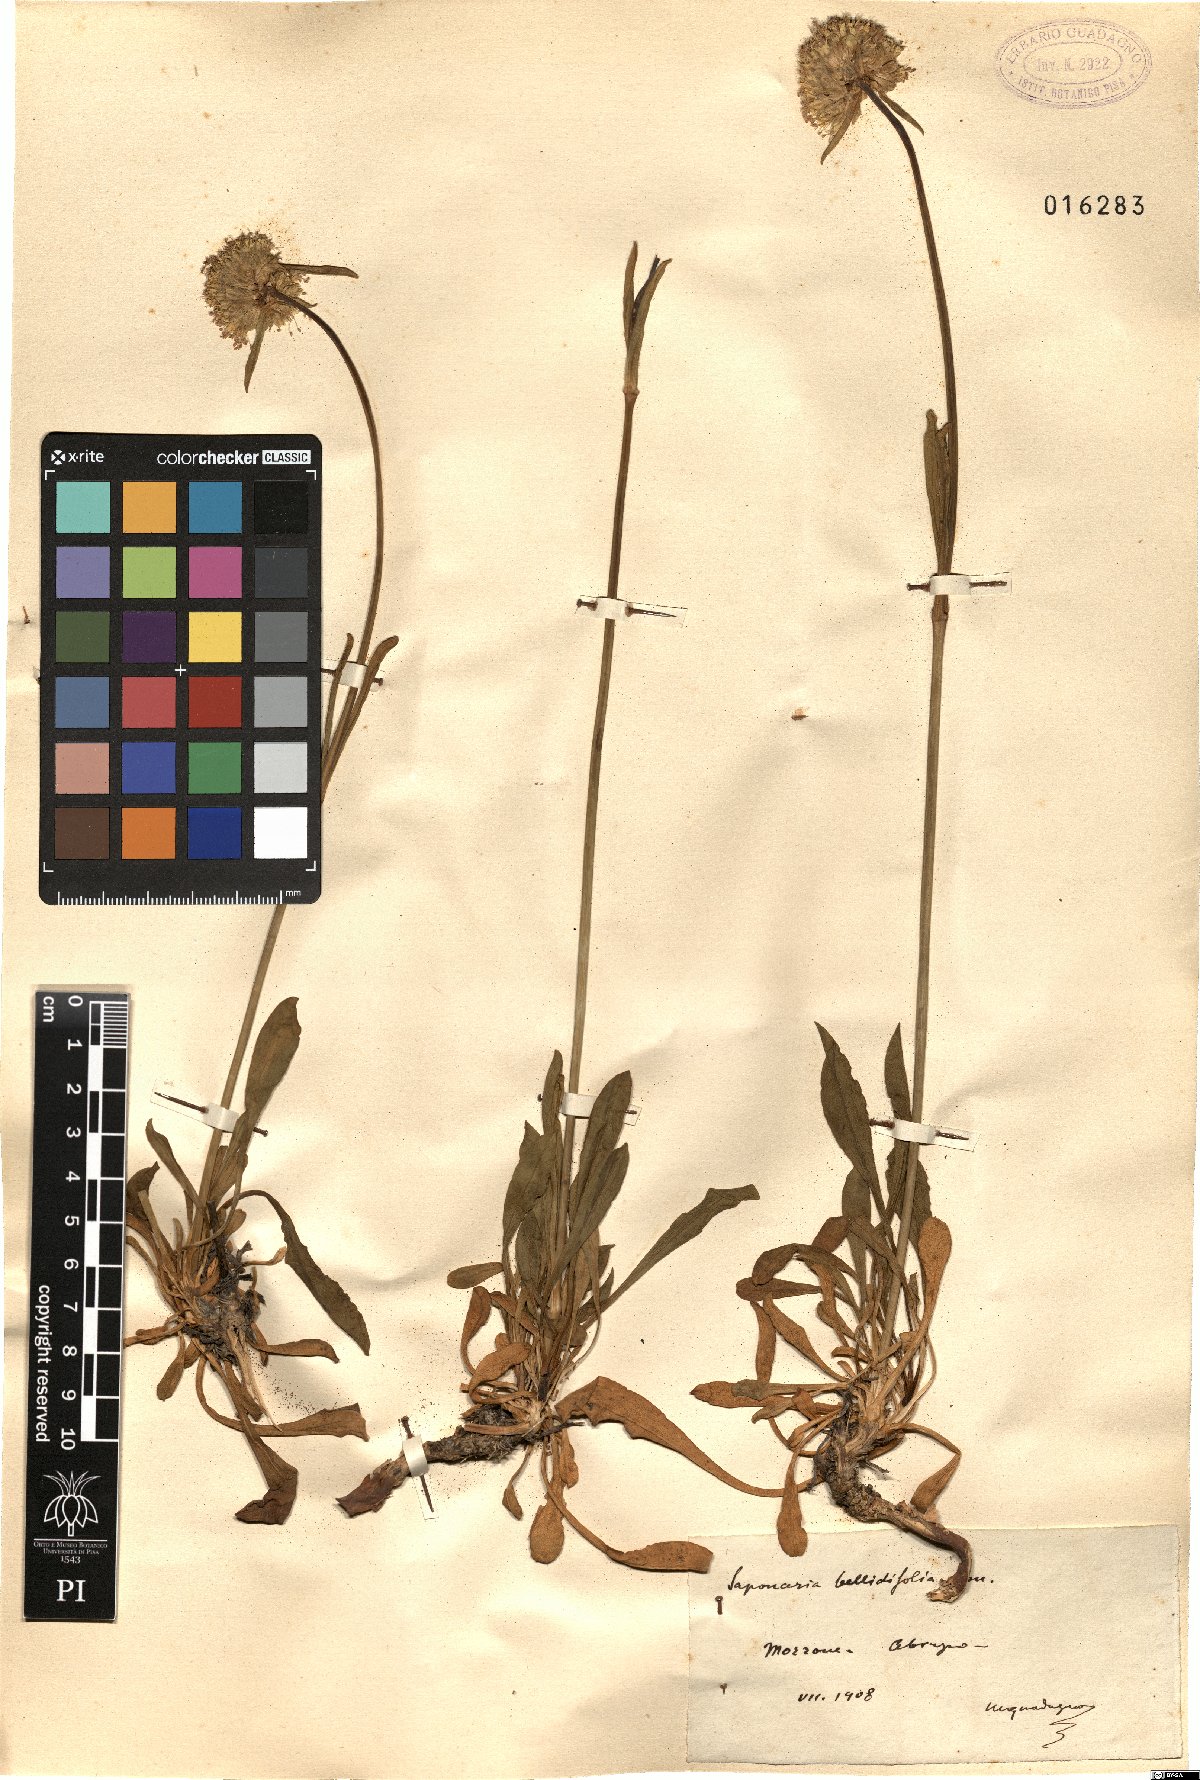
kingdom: Plantae
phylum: Tracheophyta
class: Magnoliopsida
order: Caryophyllales
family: Caryophyllaceae
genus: Saponaria
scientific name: Saponaria bellidifolia
